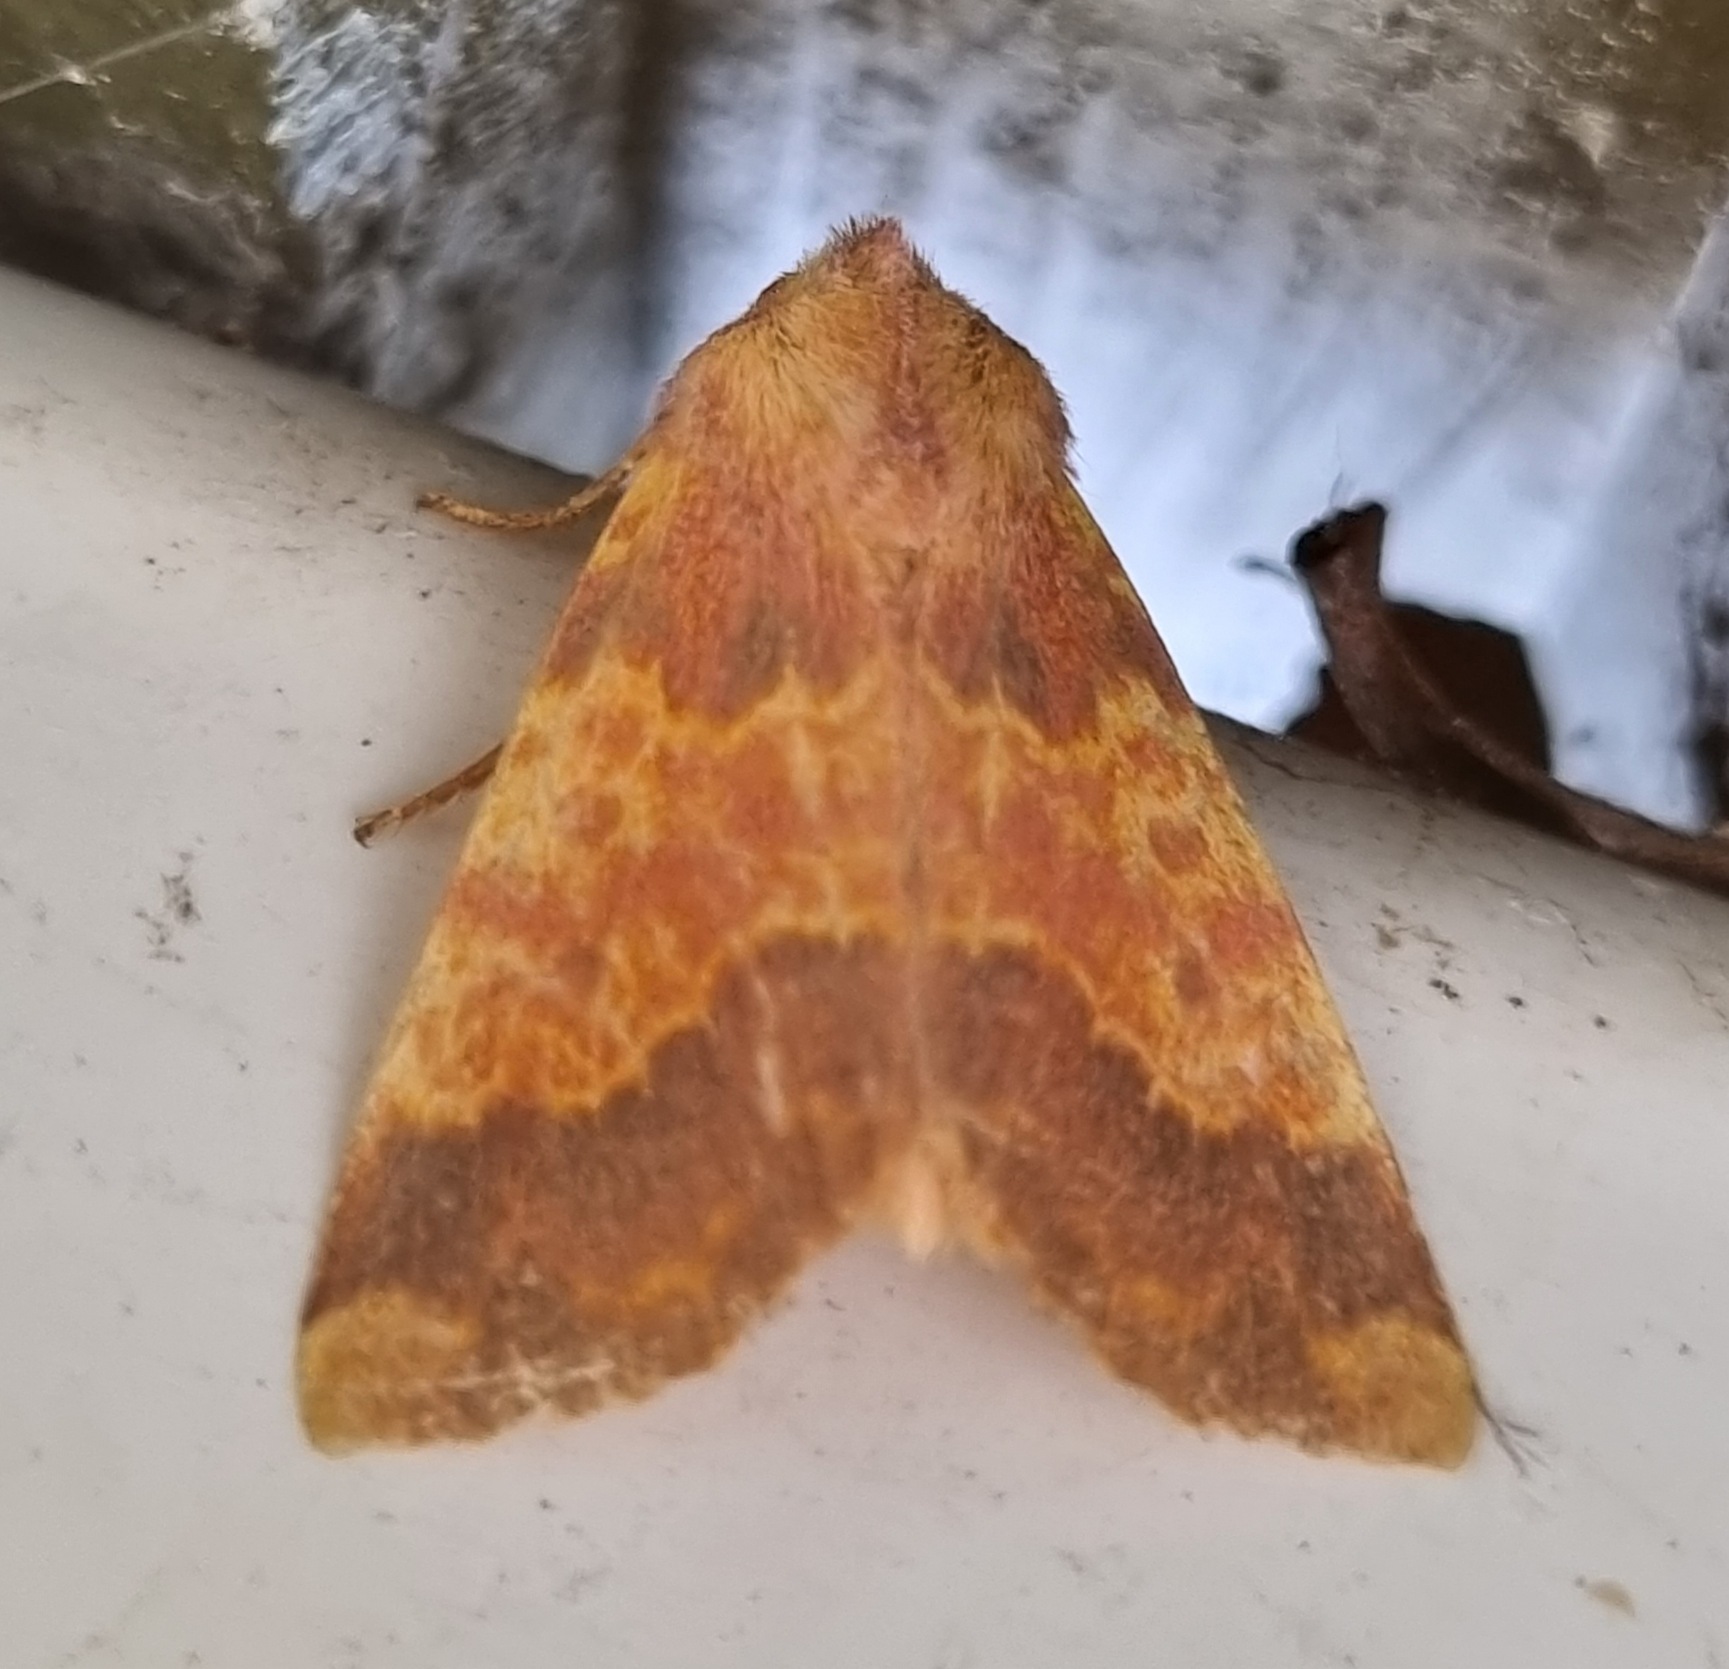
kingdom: Animalia
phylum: Arthropoda
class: Insecta
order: Lepidoptera
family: Noctuidae
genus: Tiliacea
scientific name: Tiliacea aurago
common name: Guldugle
